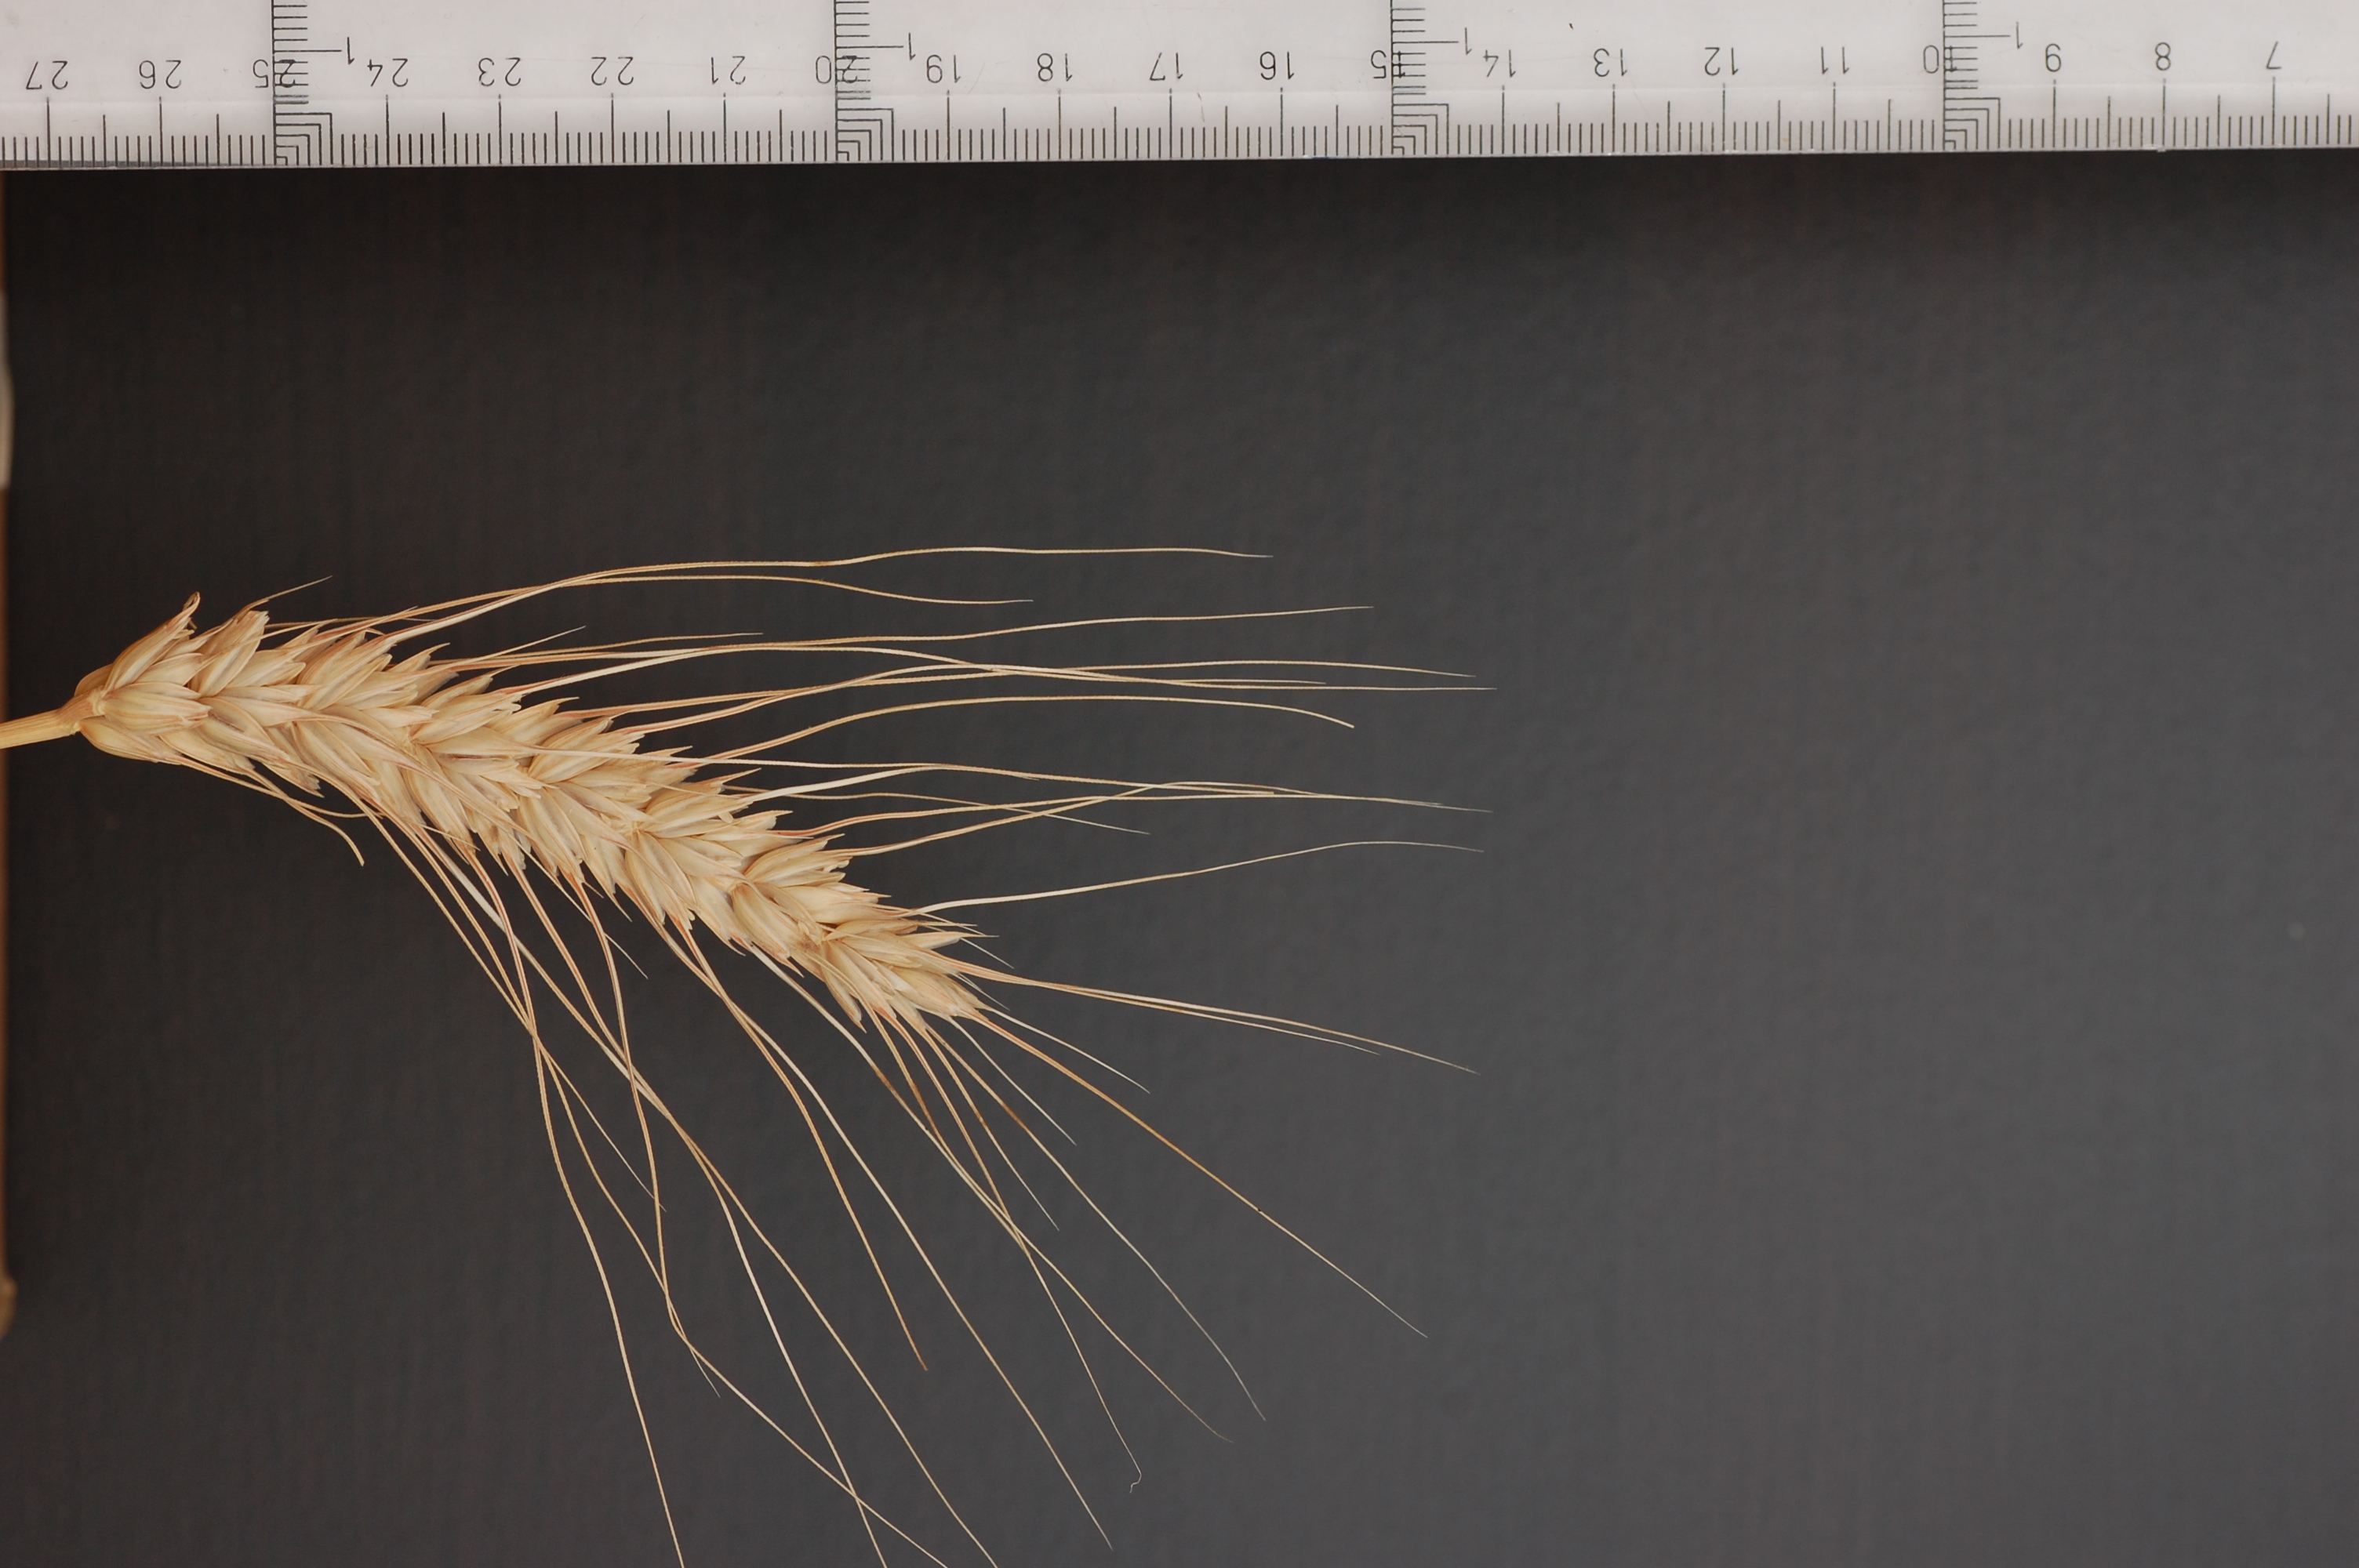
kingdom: Plantae
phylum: Tracheophyta
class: Liliopsida
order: Poales
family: Poaceae
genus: Triticum
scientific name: Triticum aestivum
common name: Common wheat
